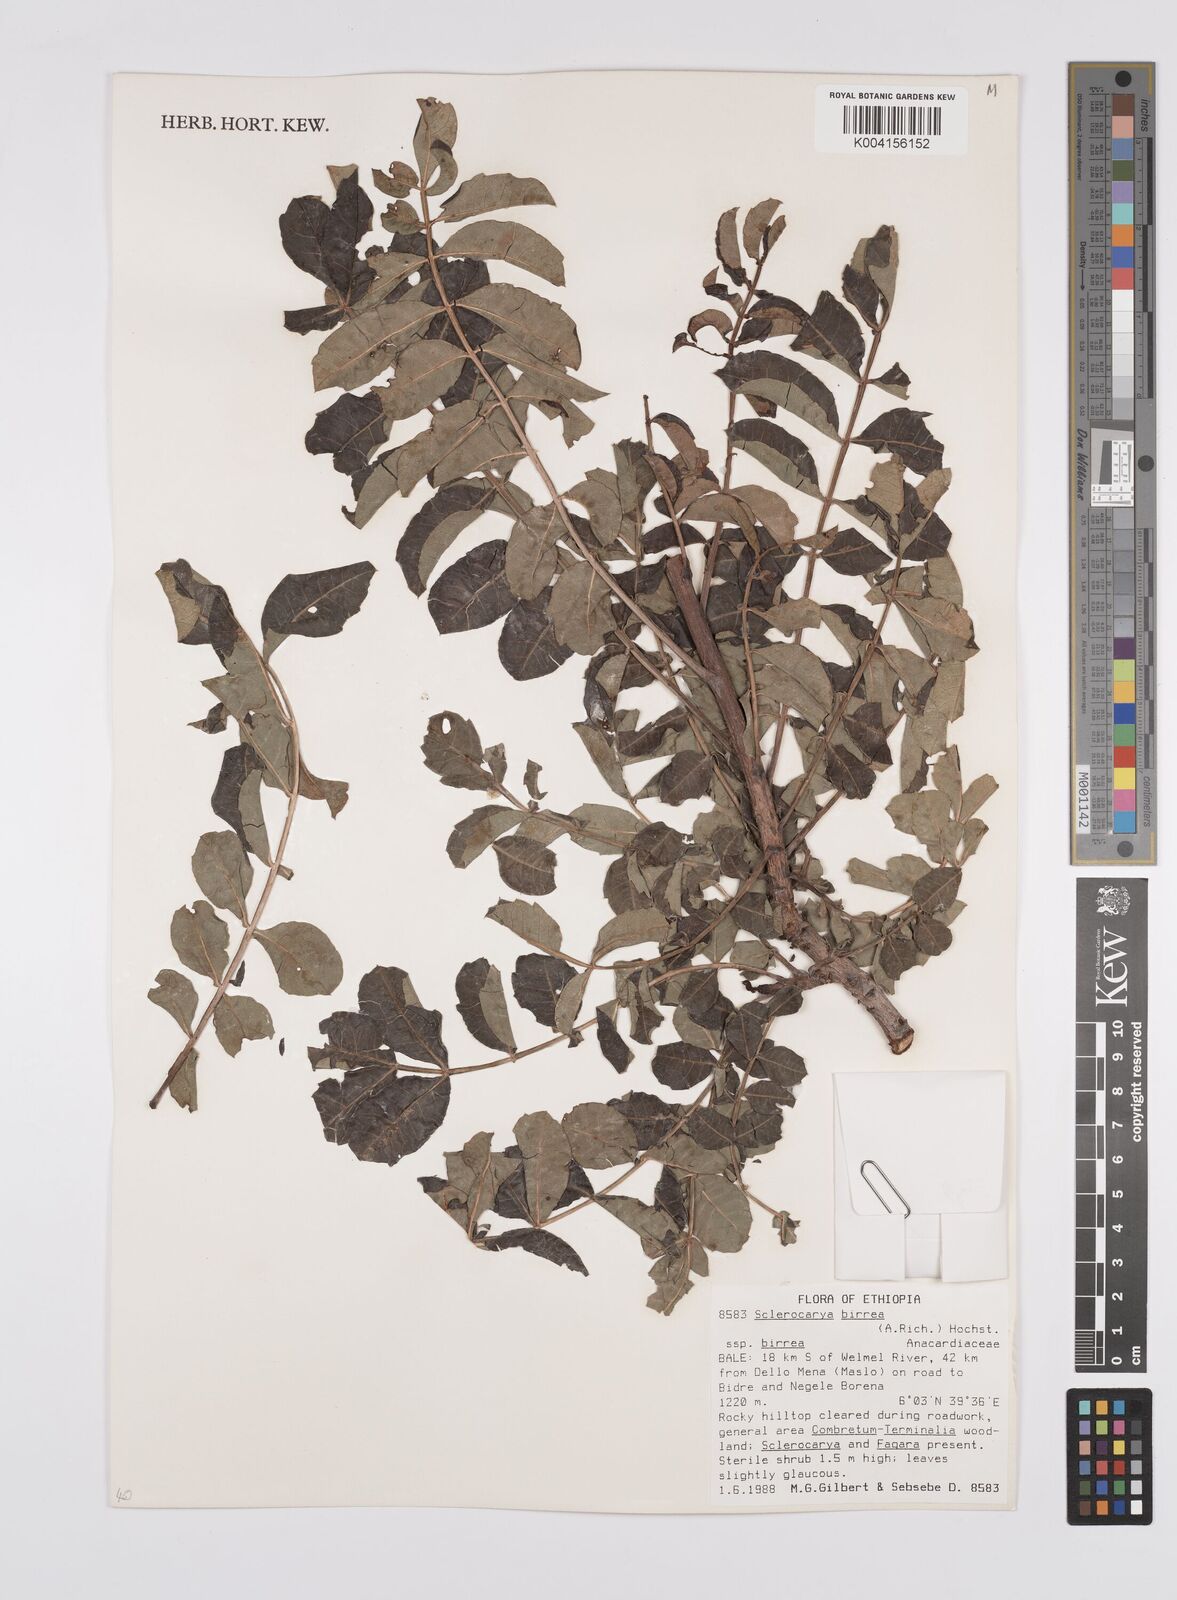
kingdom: Plantae
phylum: Tracheophyta
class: Magnoliopsida
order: Sapindales
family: Anacardiaceae
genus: Sclerocarya
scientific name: Sclerocarya birrea
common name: Marula
